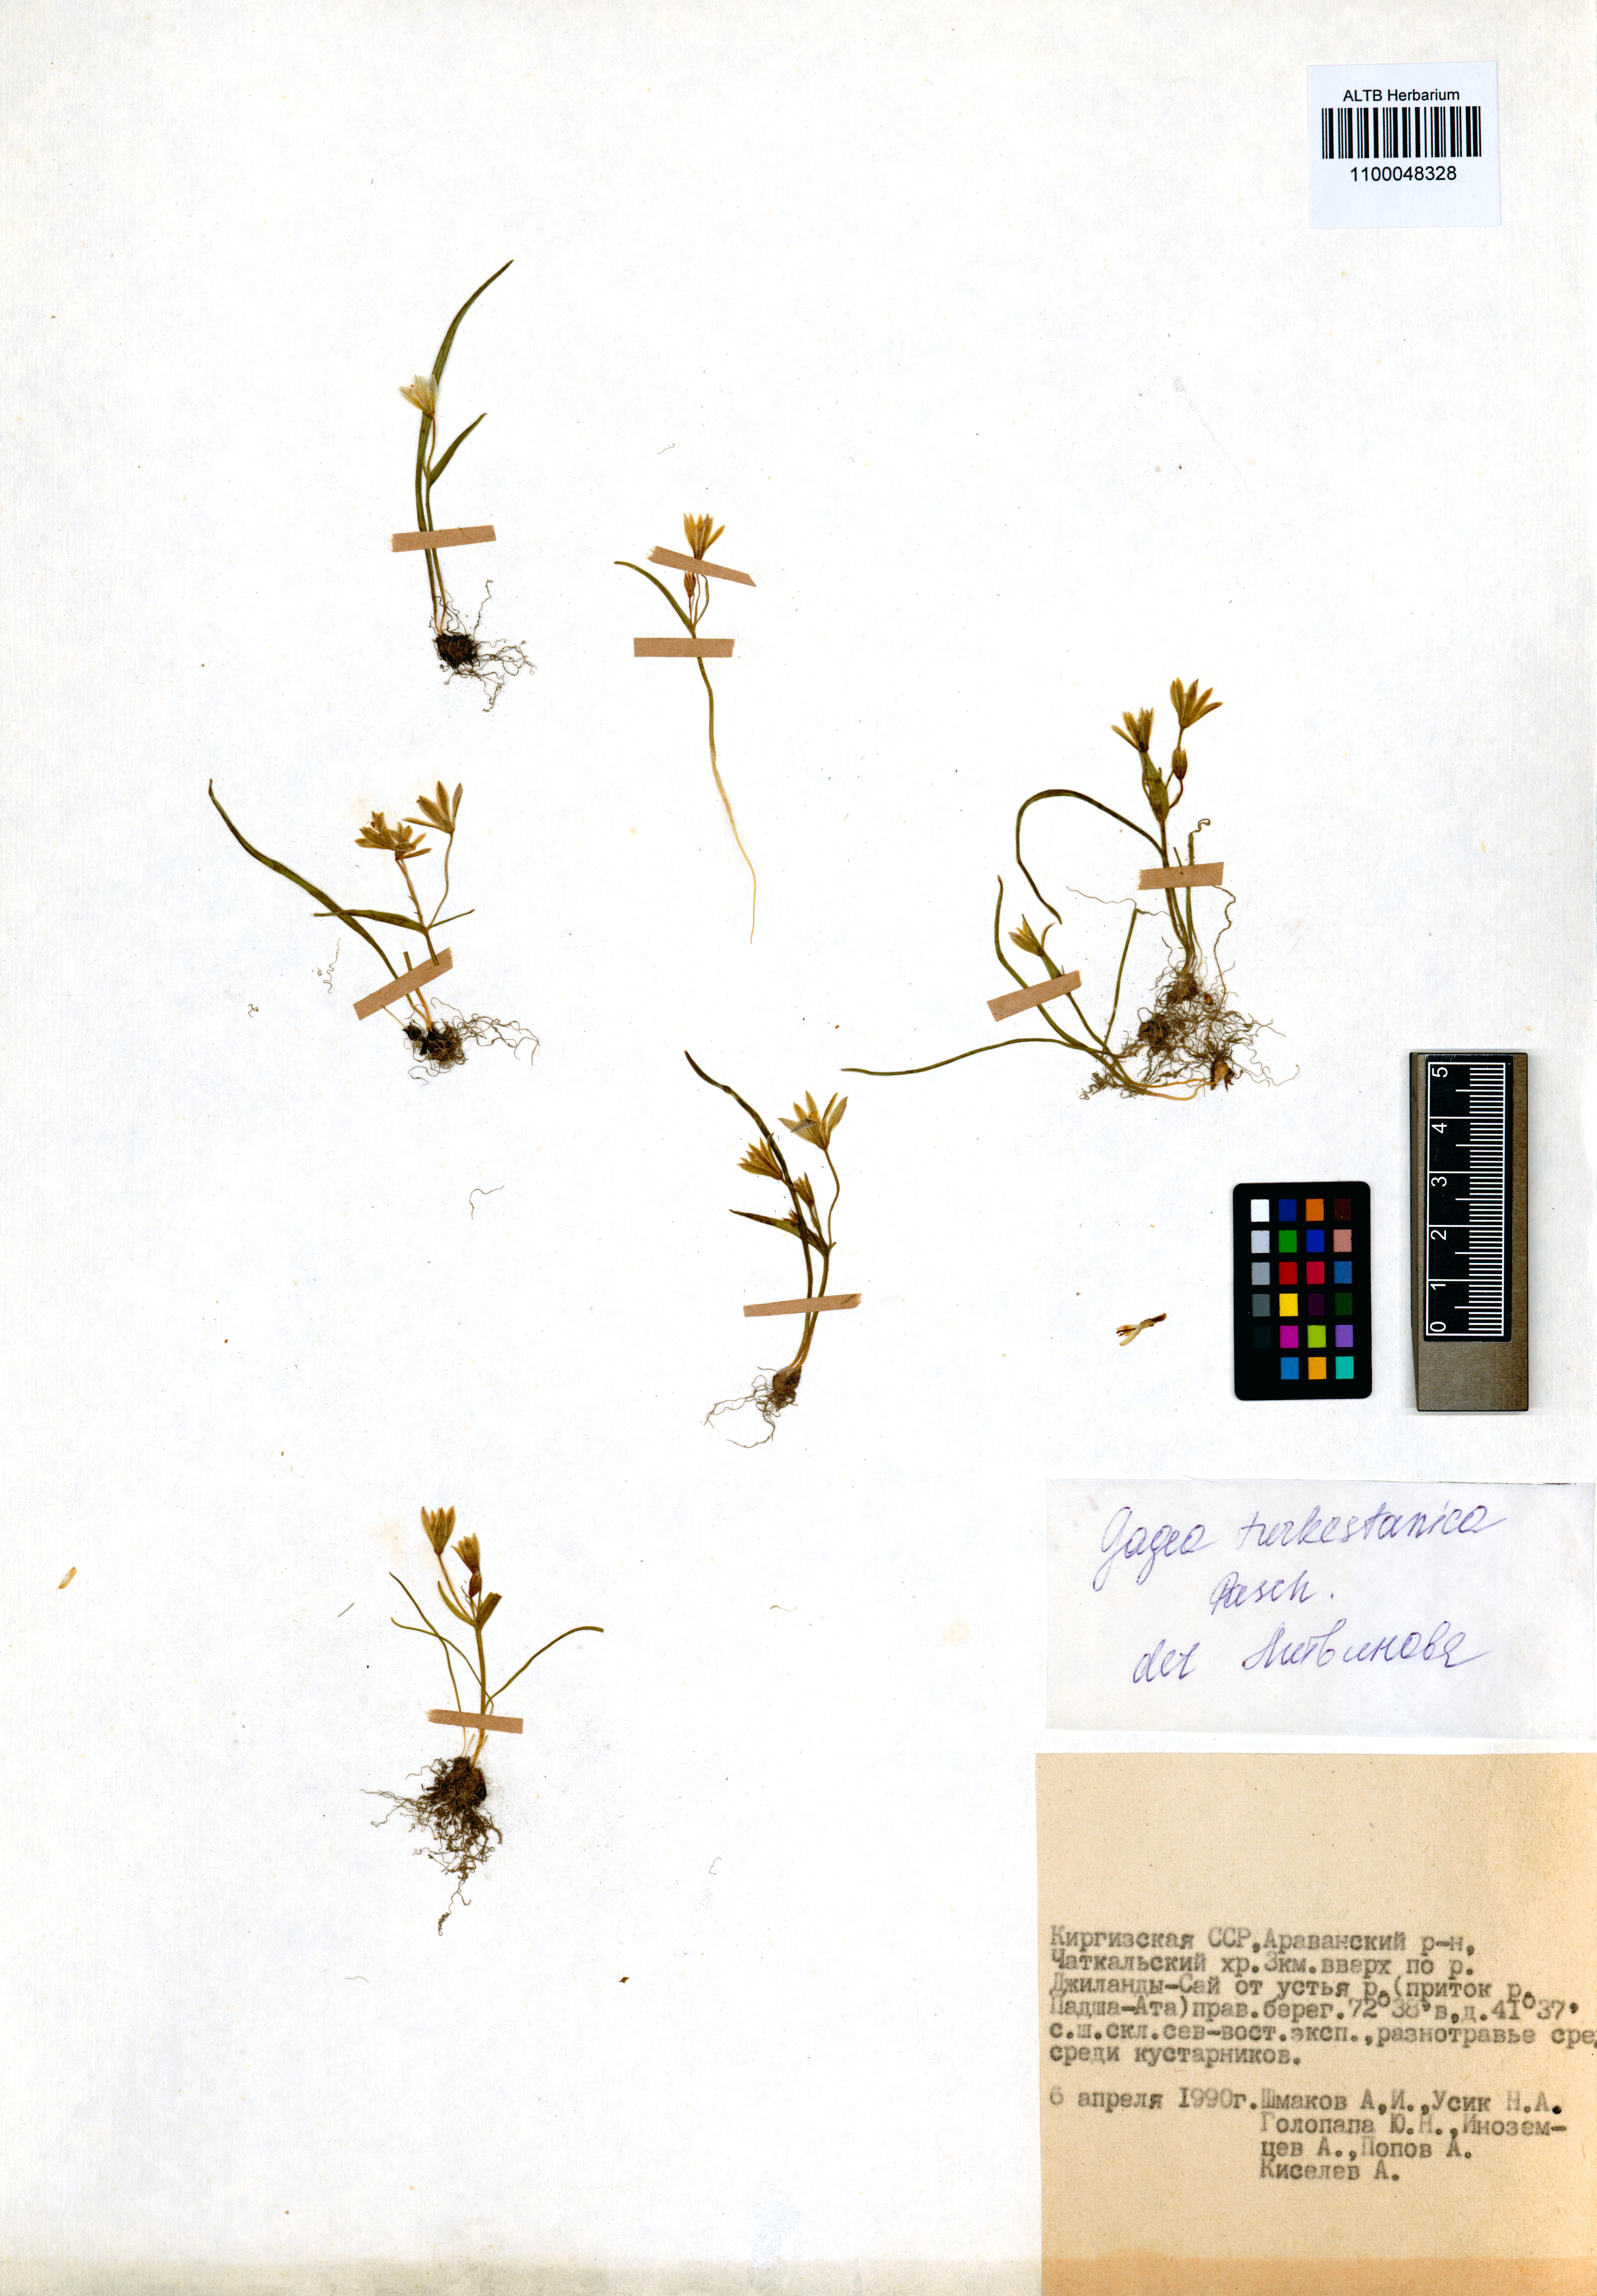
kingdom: Plantae
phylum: Tracheophyta
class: Liliopsida
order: Liliales
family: Liliaceae
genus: Gagea
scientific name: Gagea capusii
